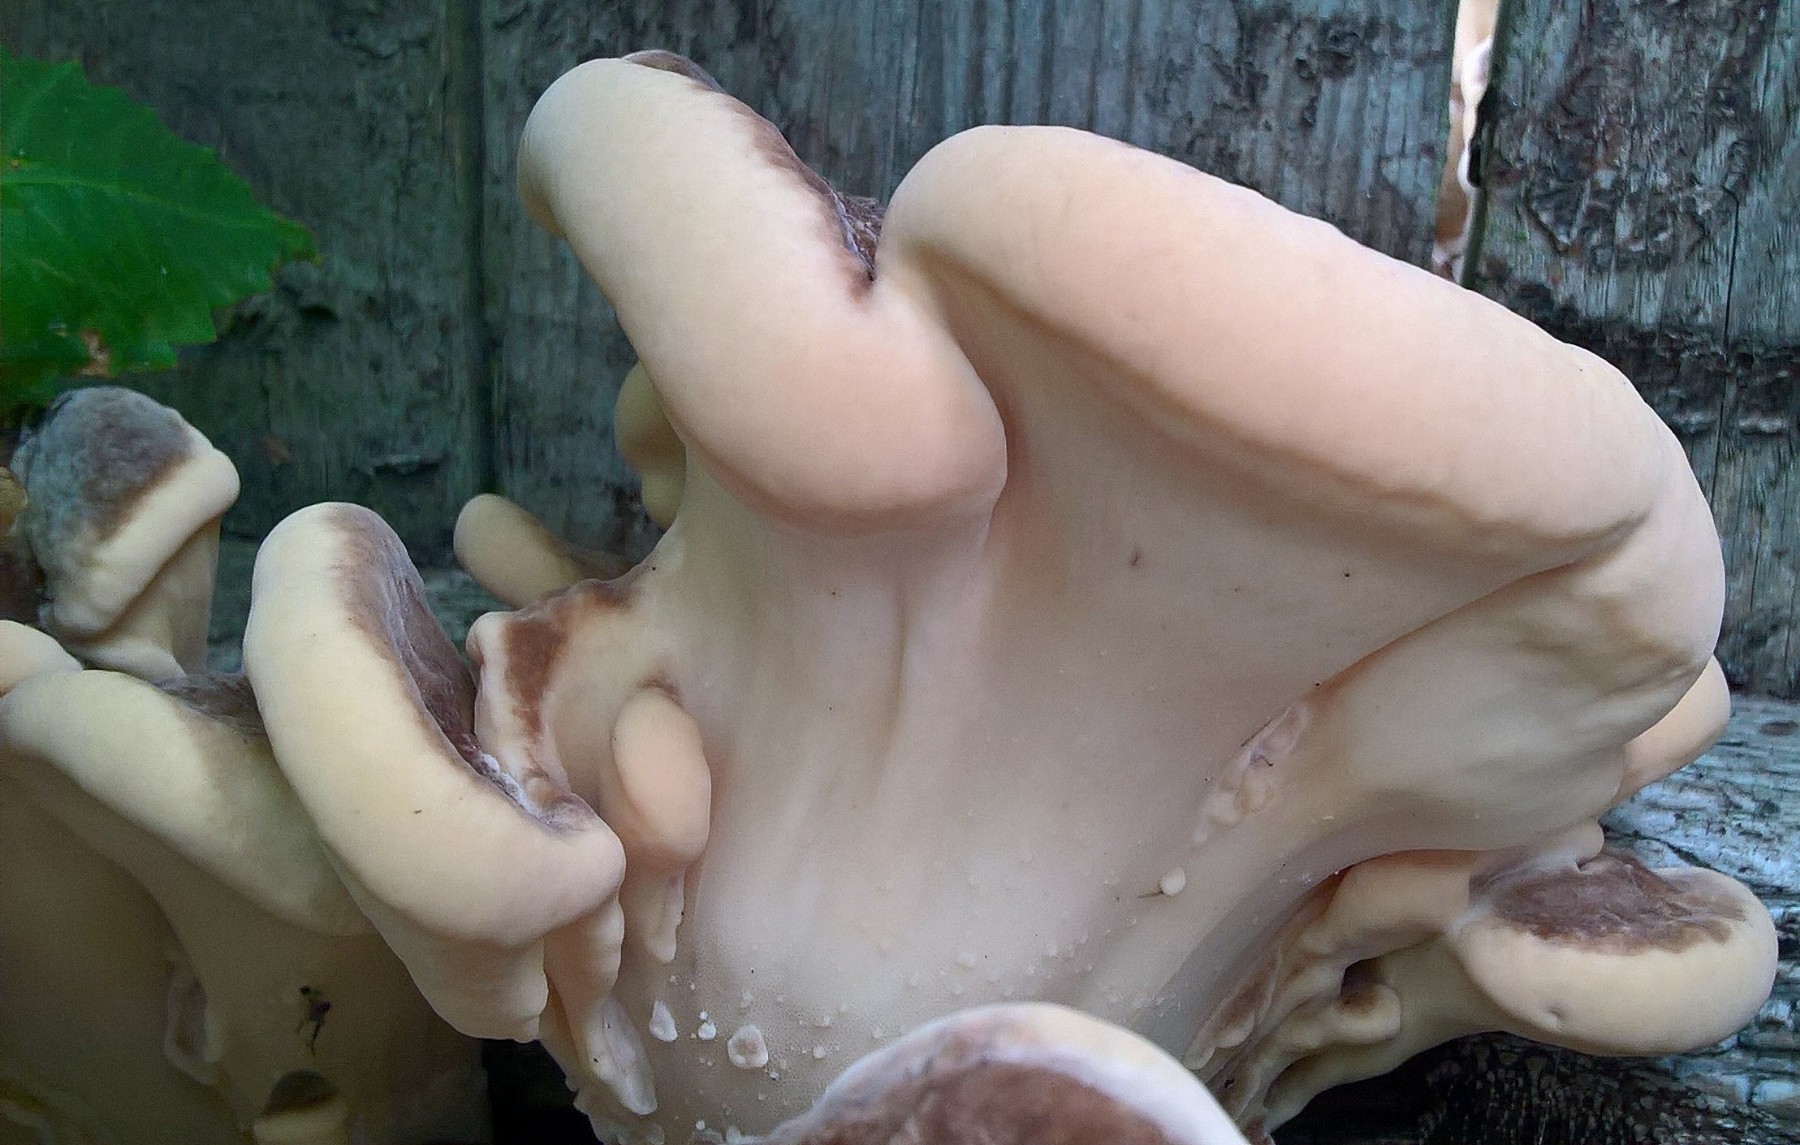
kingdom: Fungi
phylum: Basidiomycota
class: Agaricomycetes
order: Polyporales
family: Meripilaceae
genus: Meripilus
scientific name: Meripilus giganteus
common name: kæmpeporesvamp
